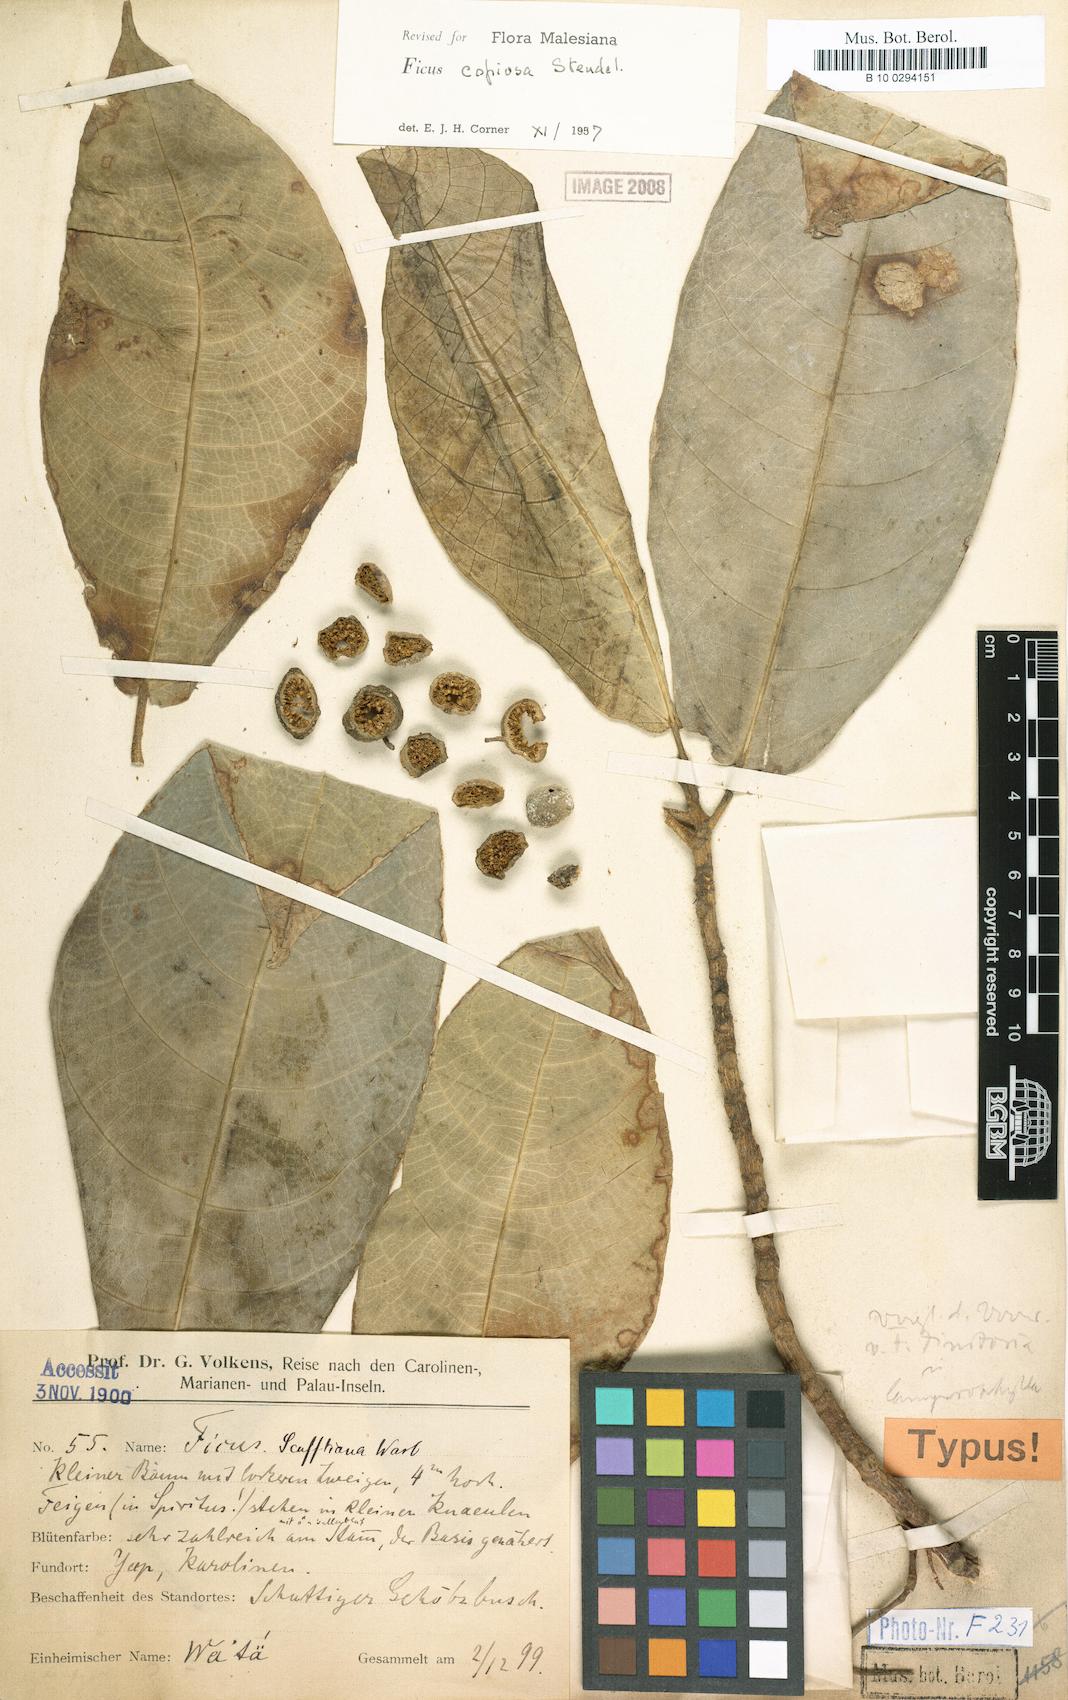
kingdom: Plantae
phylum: Tracheophyta
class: Magnoliopsida
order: Rosales
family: Moraceae
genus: Ficus
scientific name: Ficus copiosa
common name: Plentiful fig
